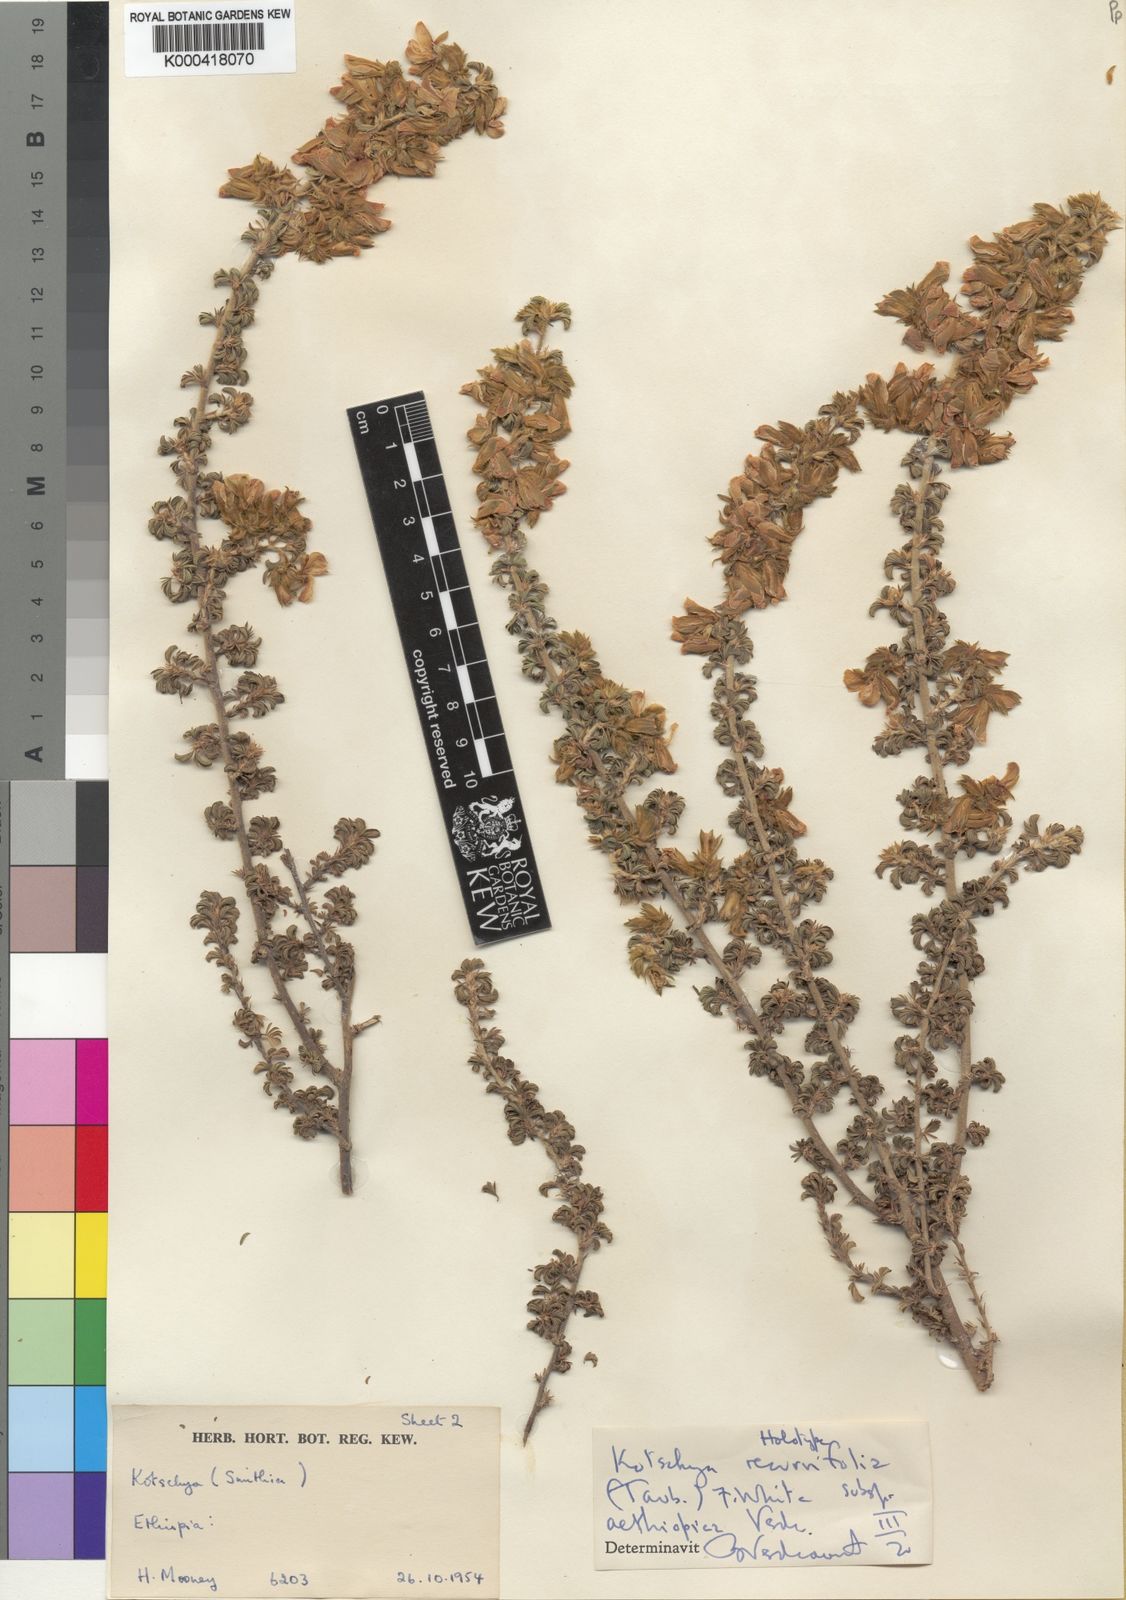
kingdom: Plantae
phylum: Tracheophyta
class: Magnoliopsida
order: Fabales
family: Fabaceae
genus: Kotschya
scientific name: Kotschya recurvifolia
